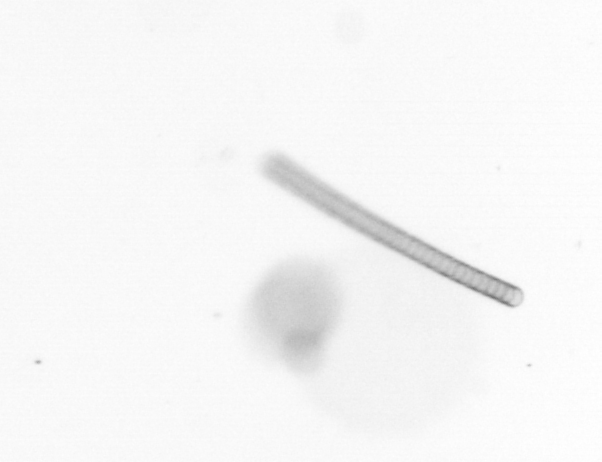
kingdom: Chromista
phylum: Ochrophyta
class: Bacillariophyceae
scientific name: Bacillariophyceae
